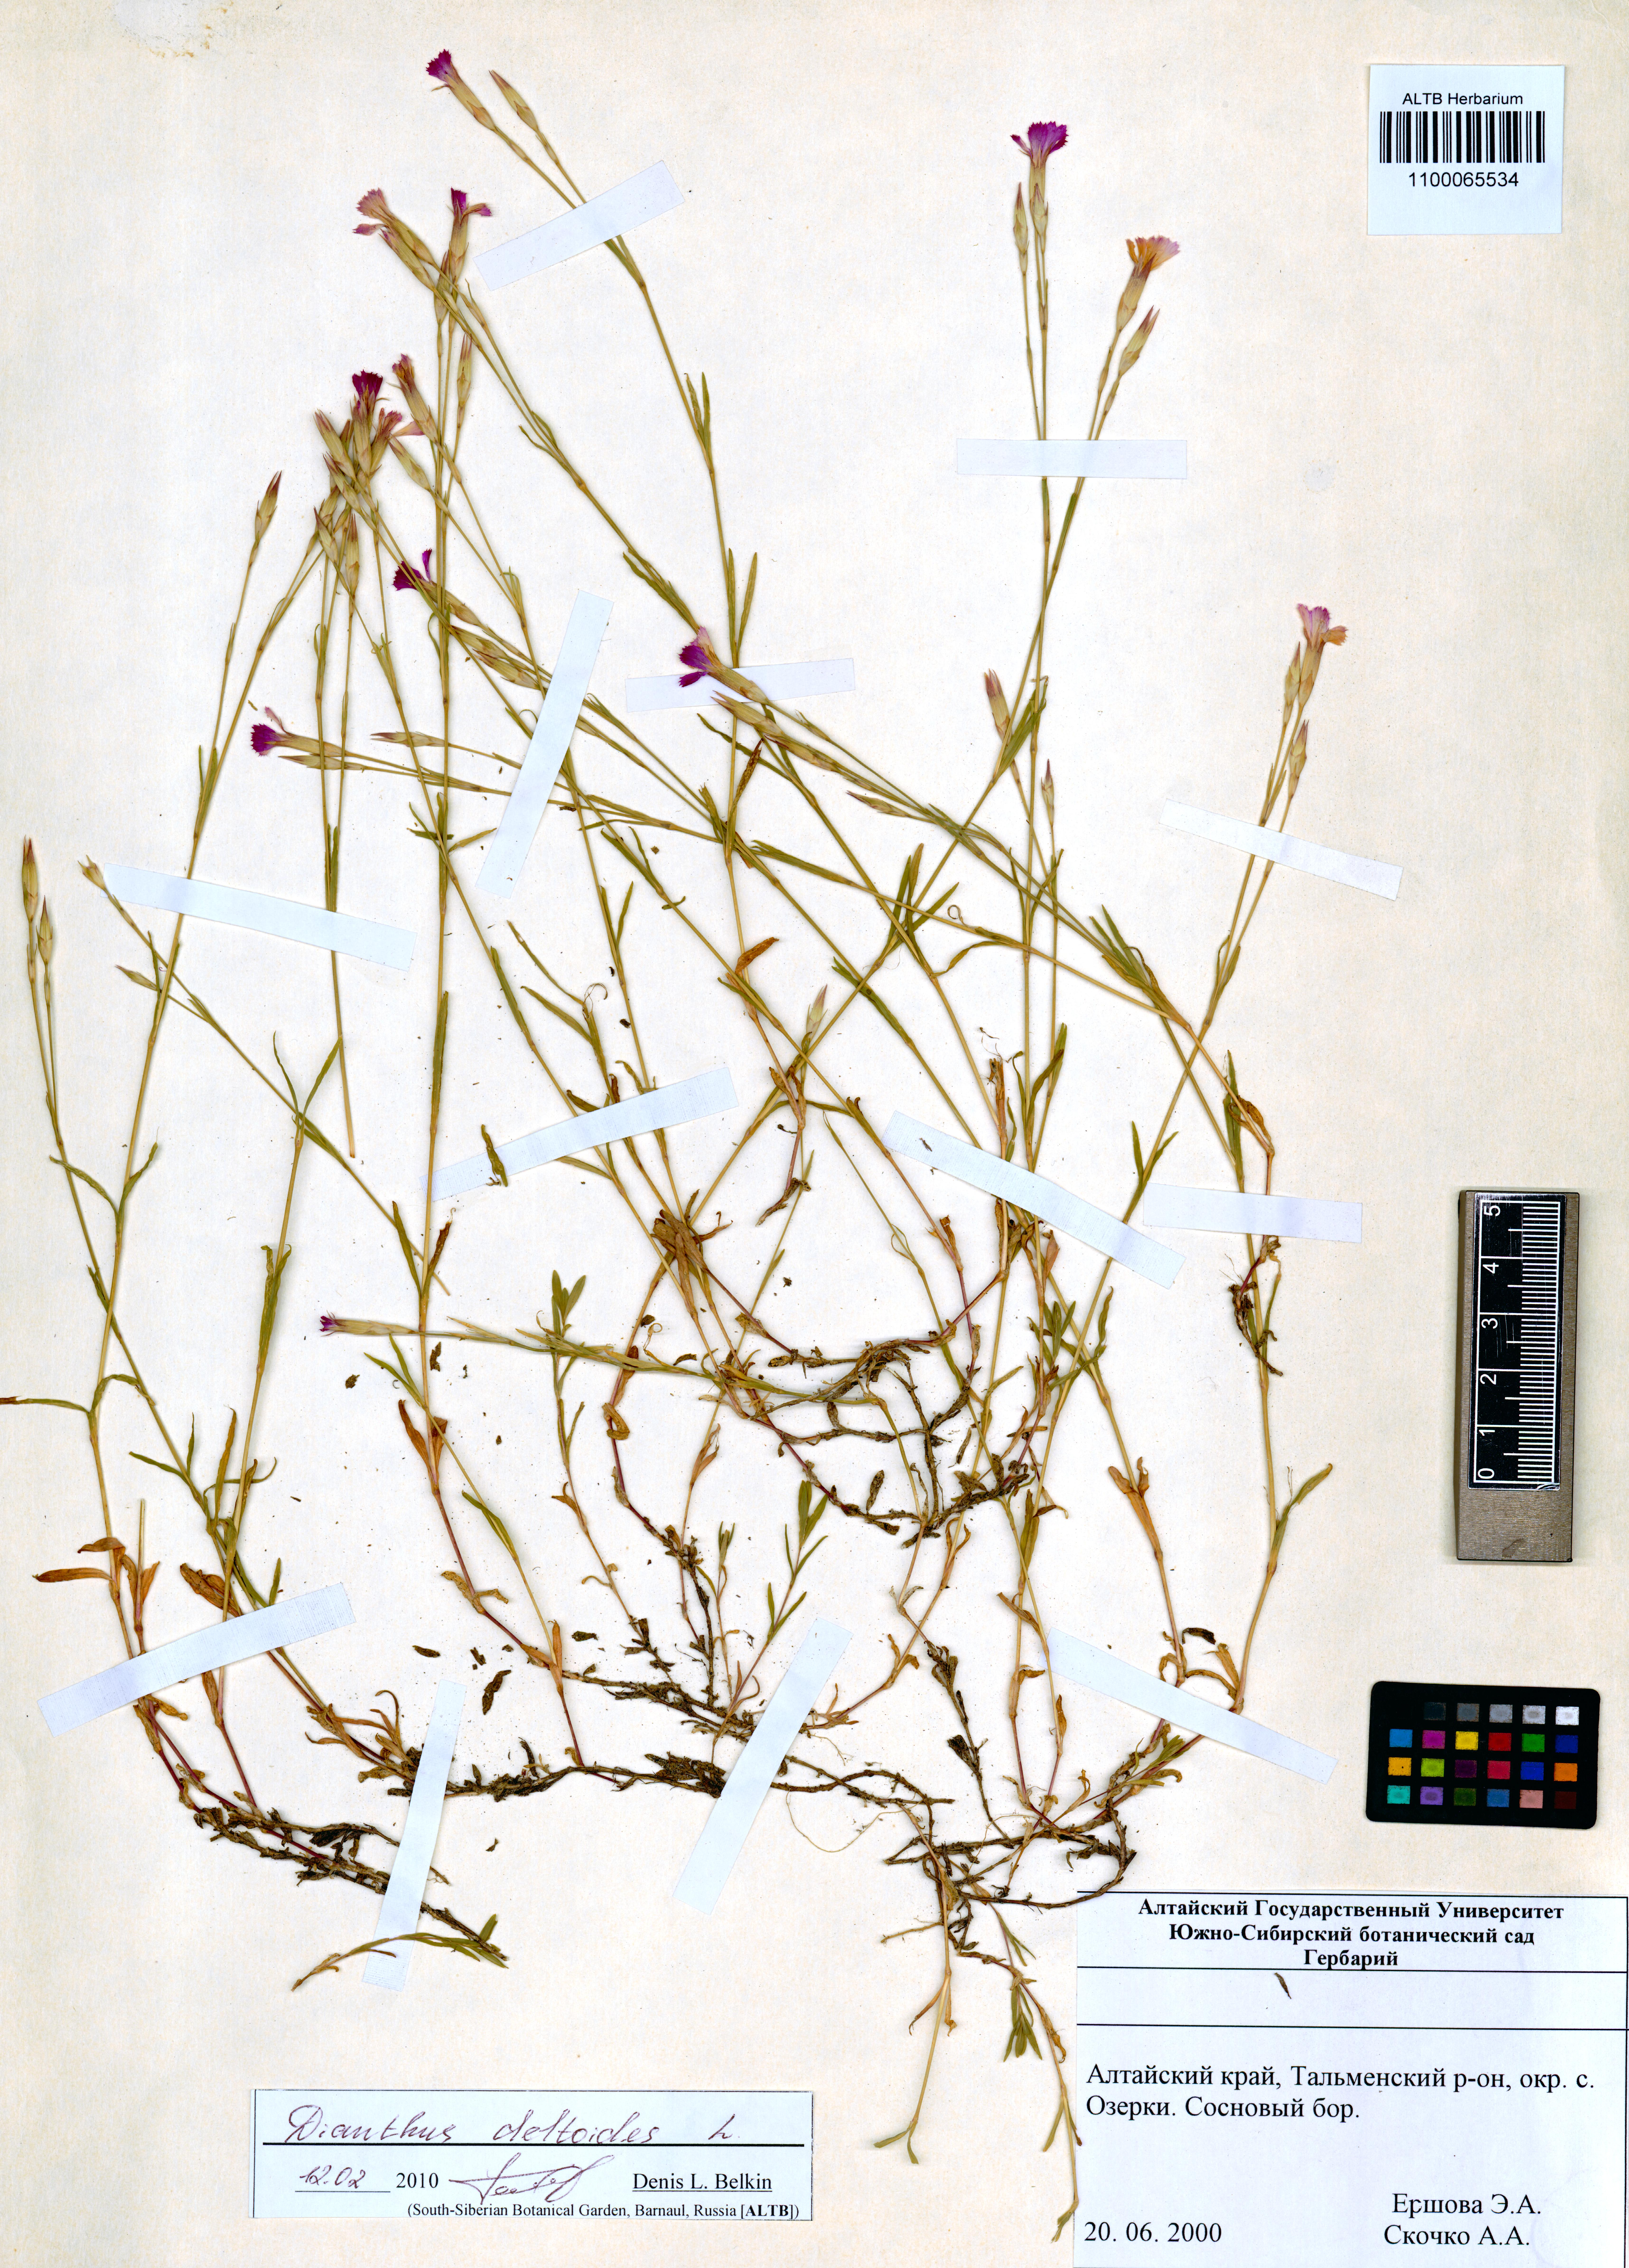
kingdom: Plantae
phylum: Tracheophyta
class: Magnoliopsida
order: Caryophyllales
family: Caryophyllaceae
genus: Dianthus
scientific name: Dianthus deltoides
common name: Maiden pink
